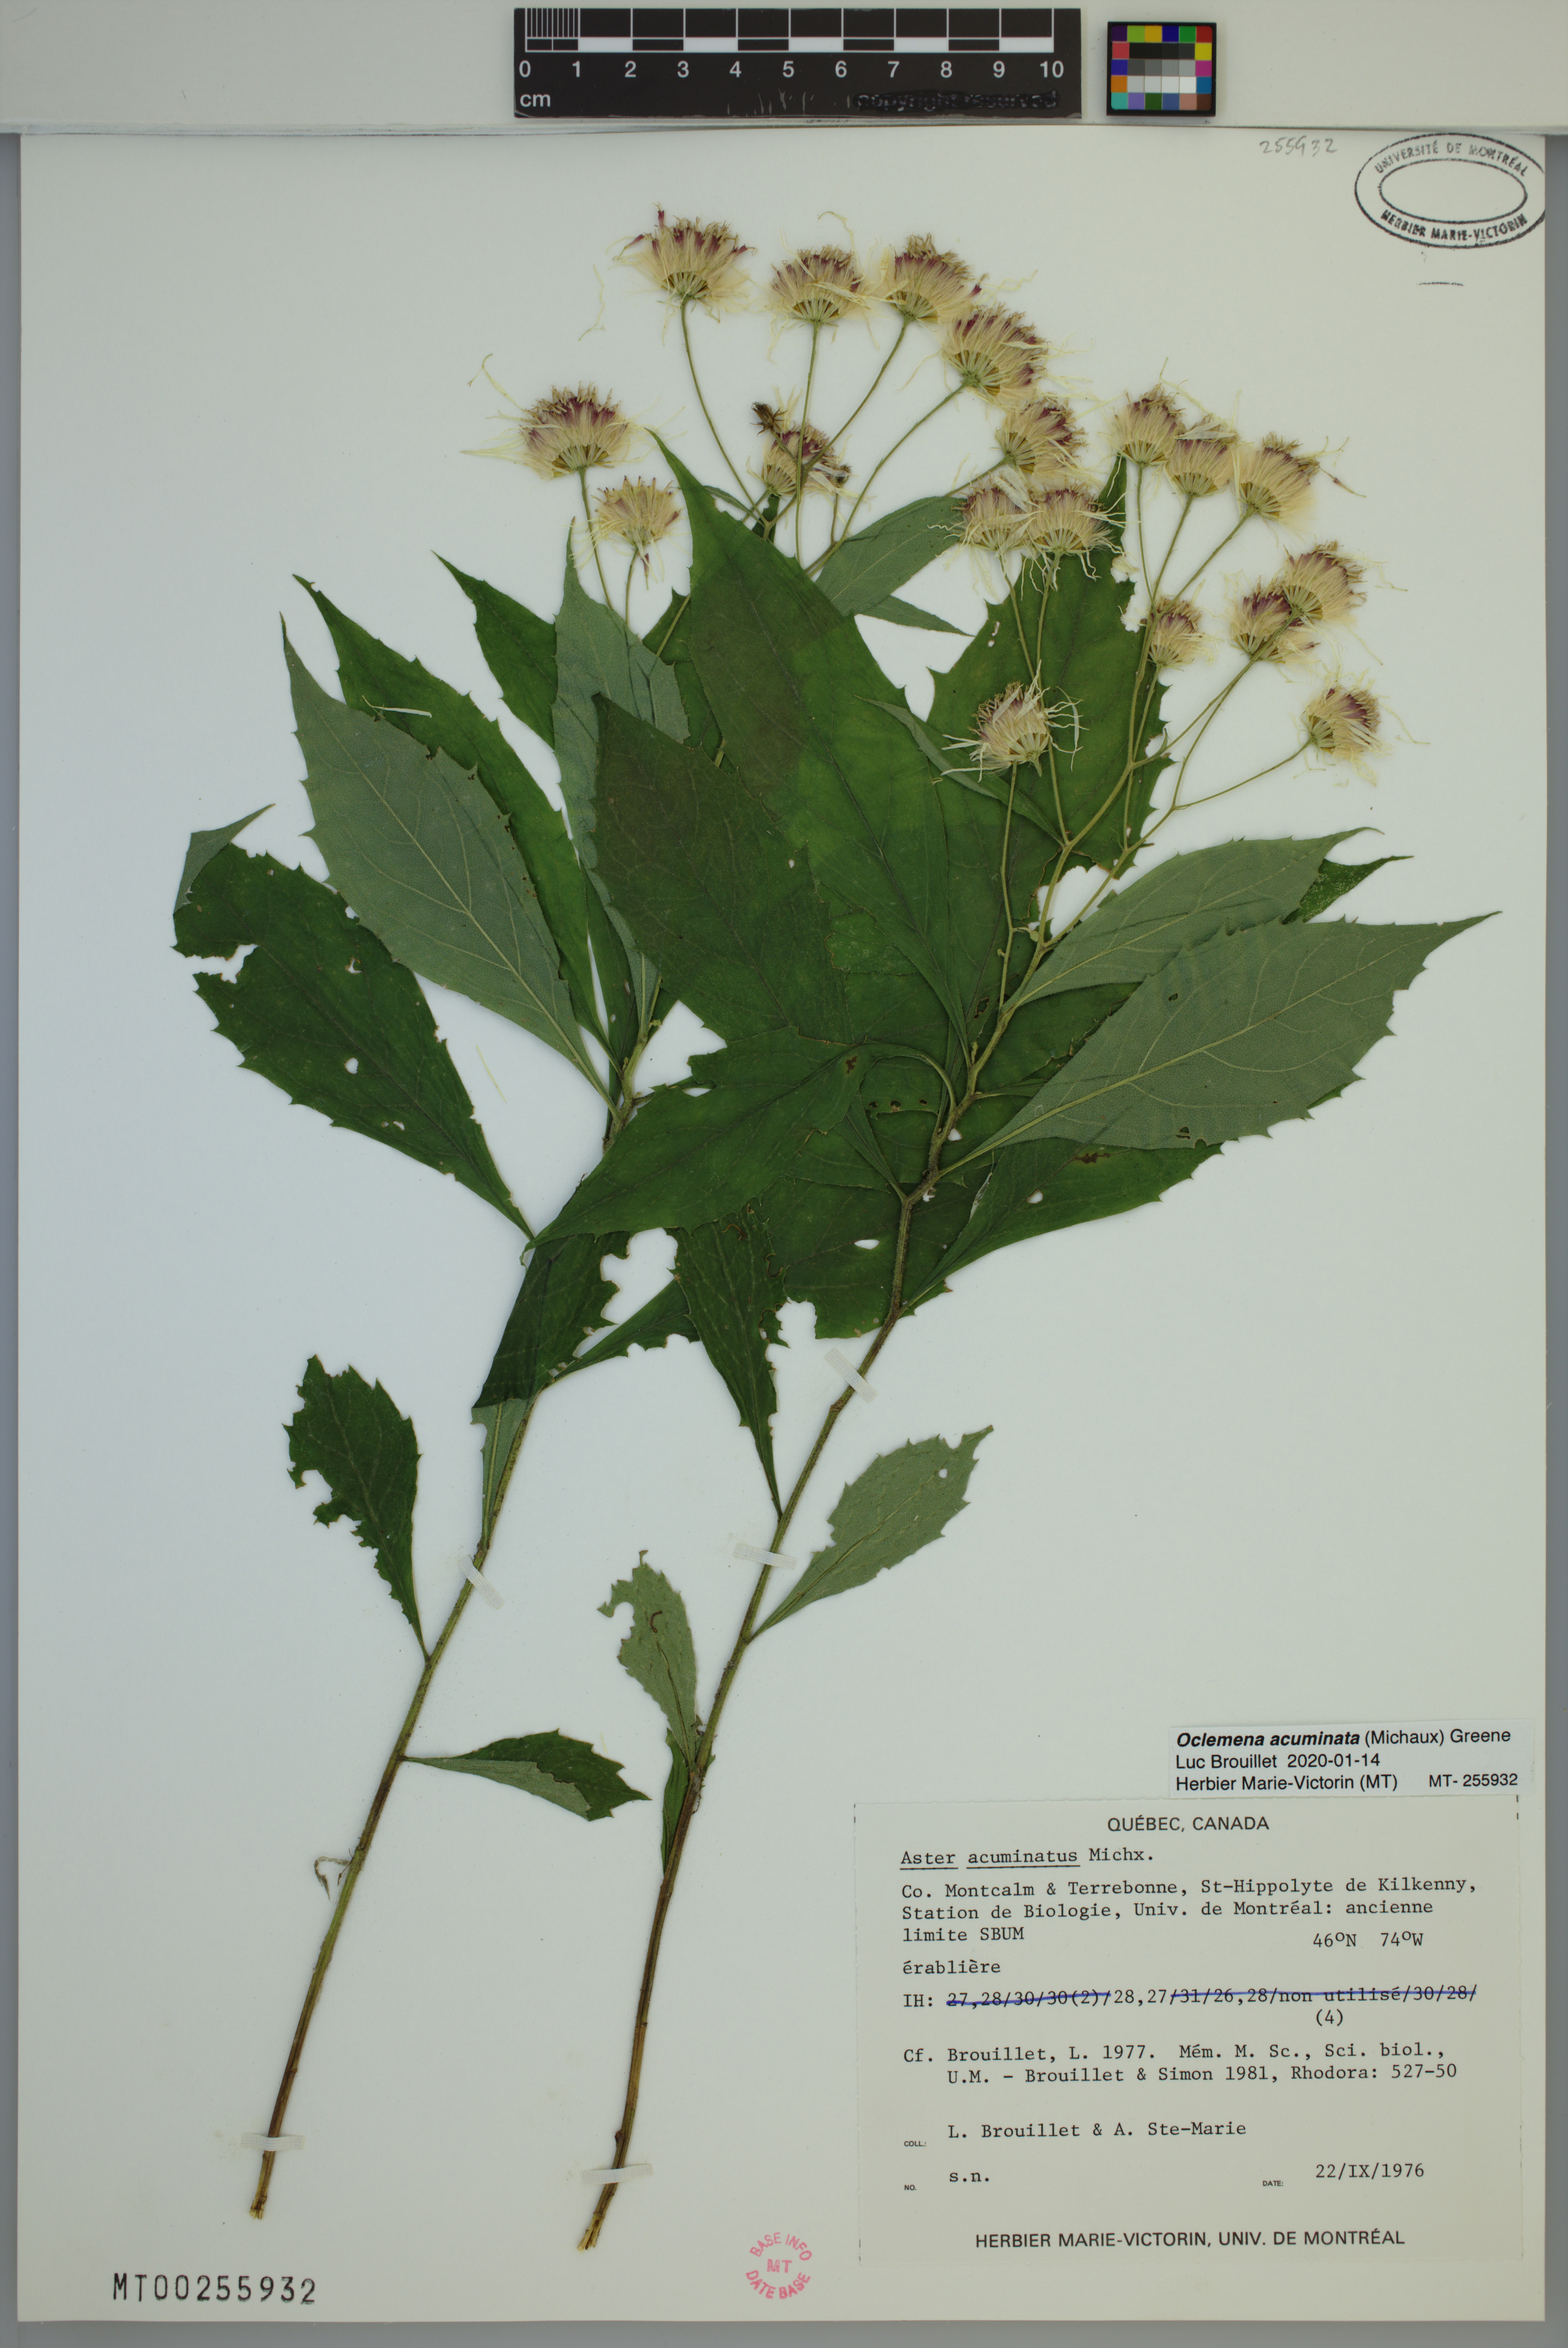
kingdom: Plantae
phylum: Tracheophyta
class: Magnoliopsida
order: Asterales
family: Asteraceae
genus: Oclemena
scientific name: Oclemena acuminata
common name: Mountain aster
